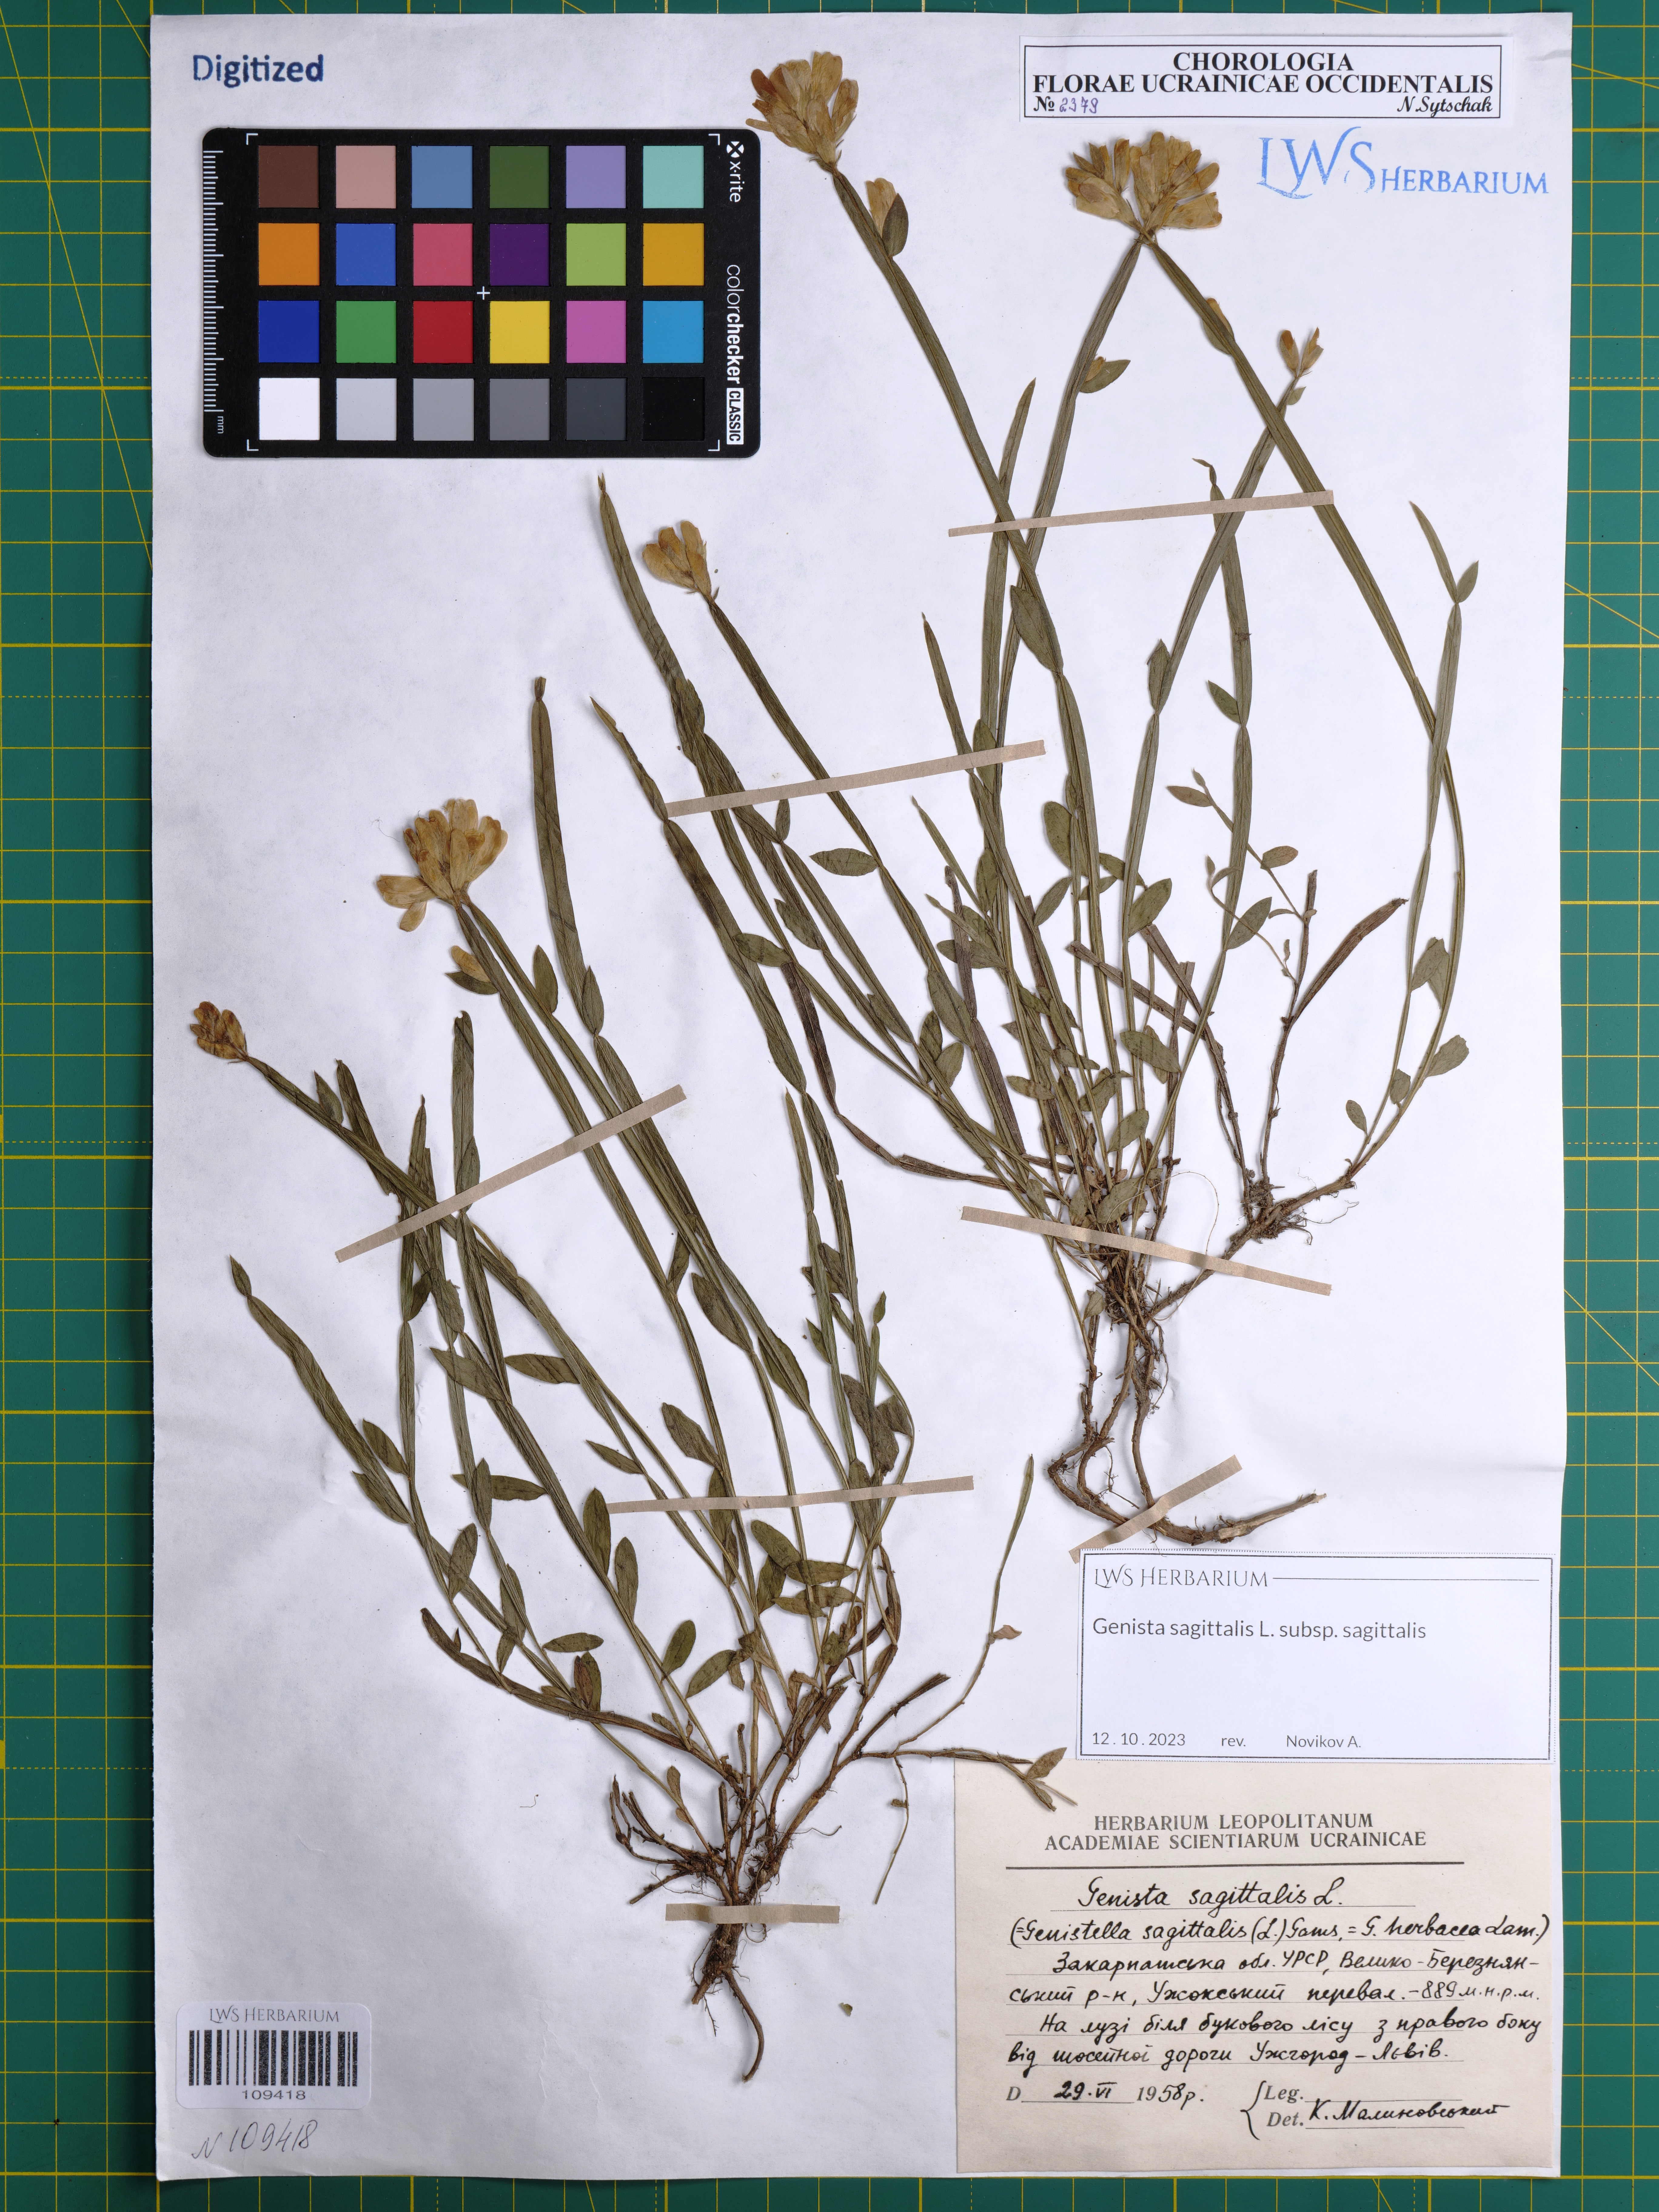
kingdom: Plantae
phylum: Tracheophyta
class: Magnoliopsida
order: Fabales
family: Fabaceae
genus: Genista
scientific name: Genista sagittalis
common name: Winged greenweed
